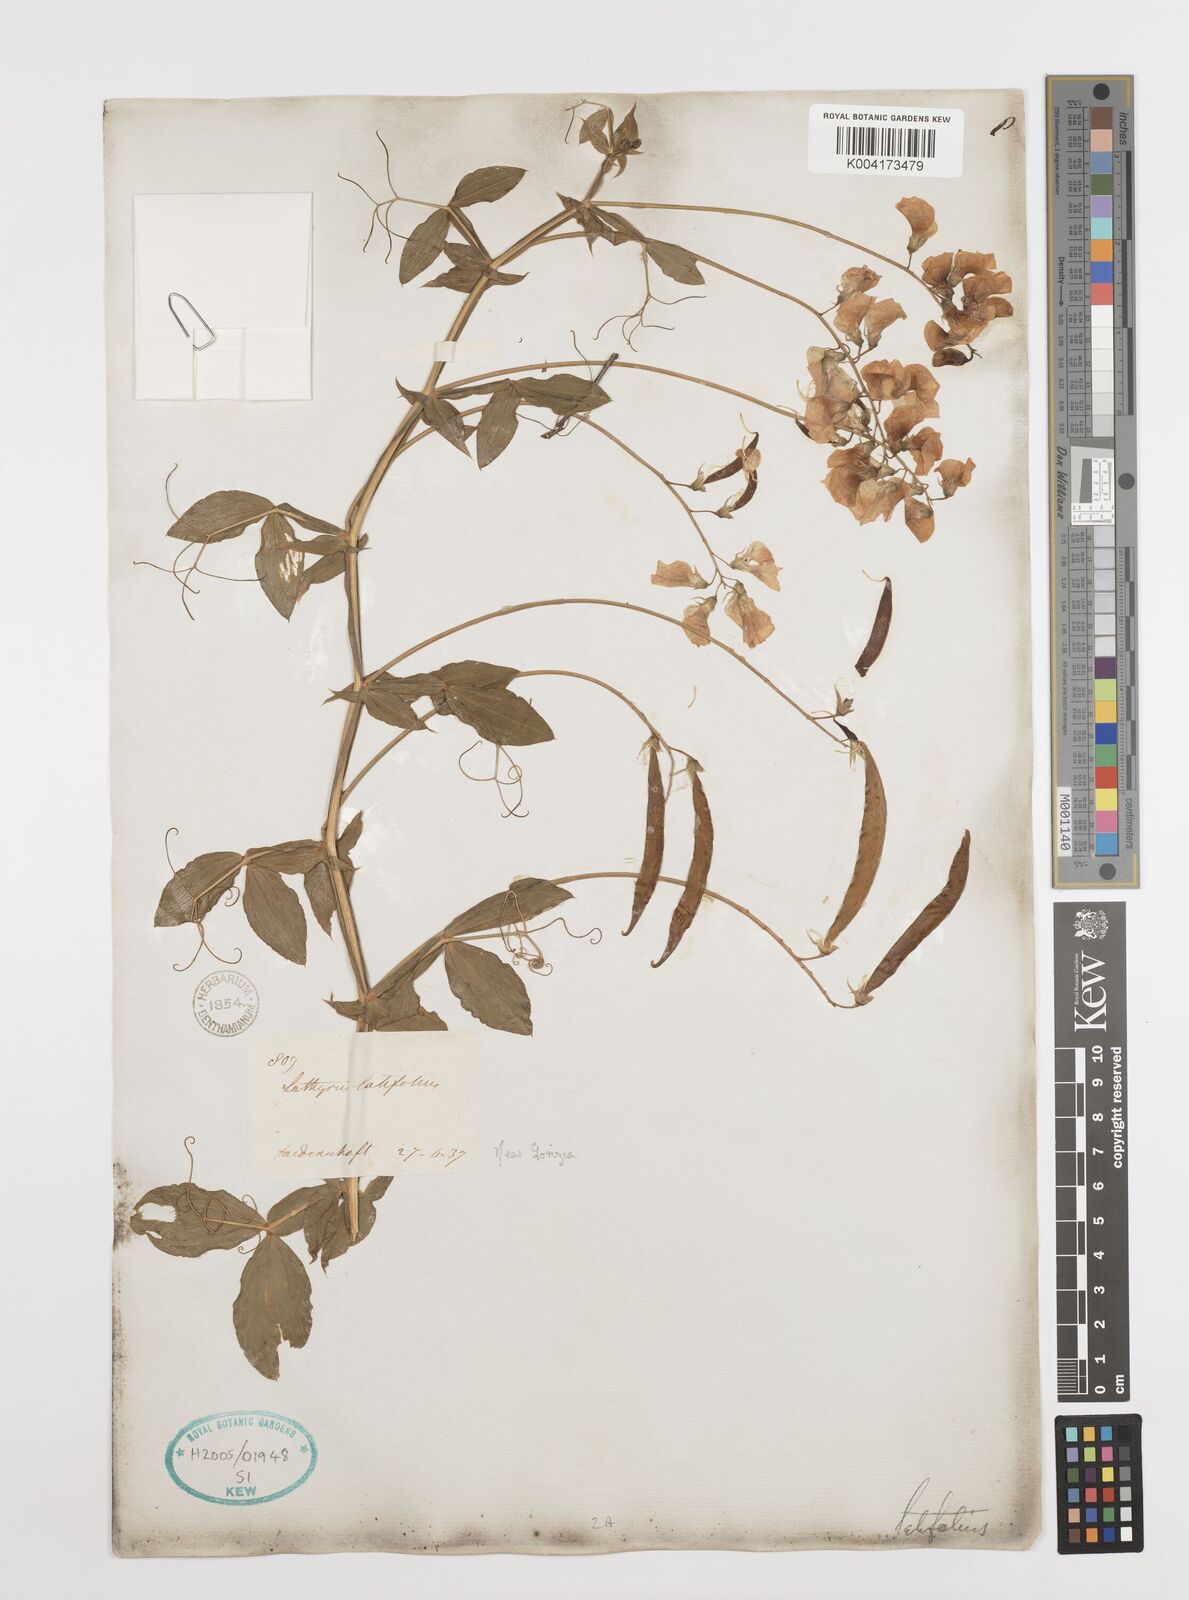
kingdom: Plantae
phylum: Tracheophyta
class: Magnoliopsida
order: Fabales
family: Fabaceae
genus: Lathyrus
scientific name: Lathyrus latifolius
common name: Perennial pea
